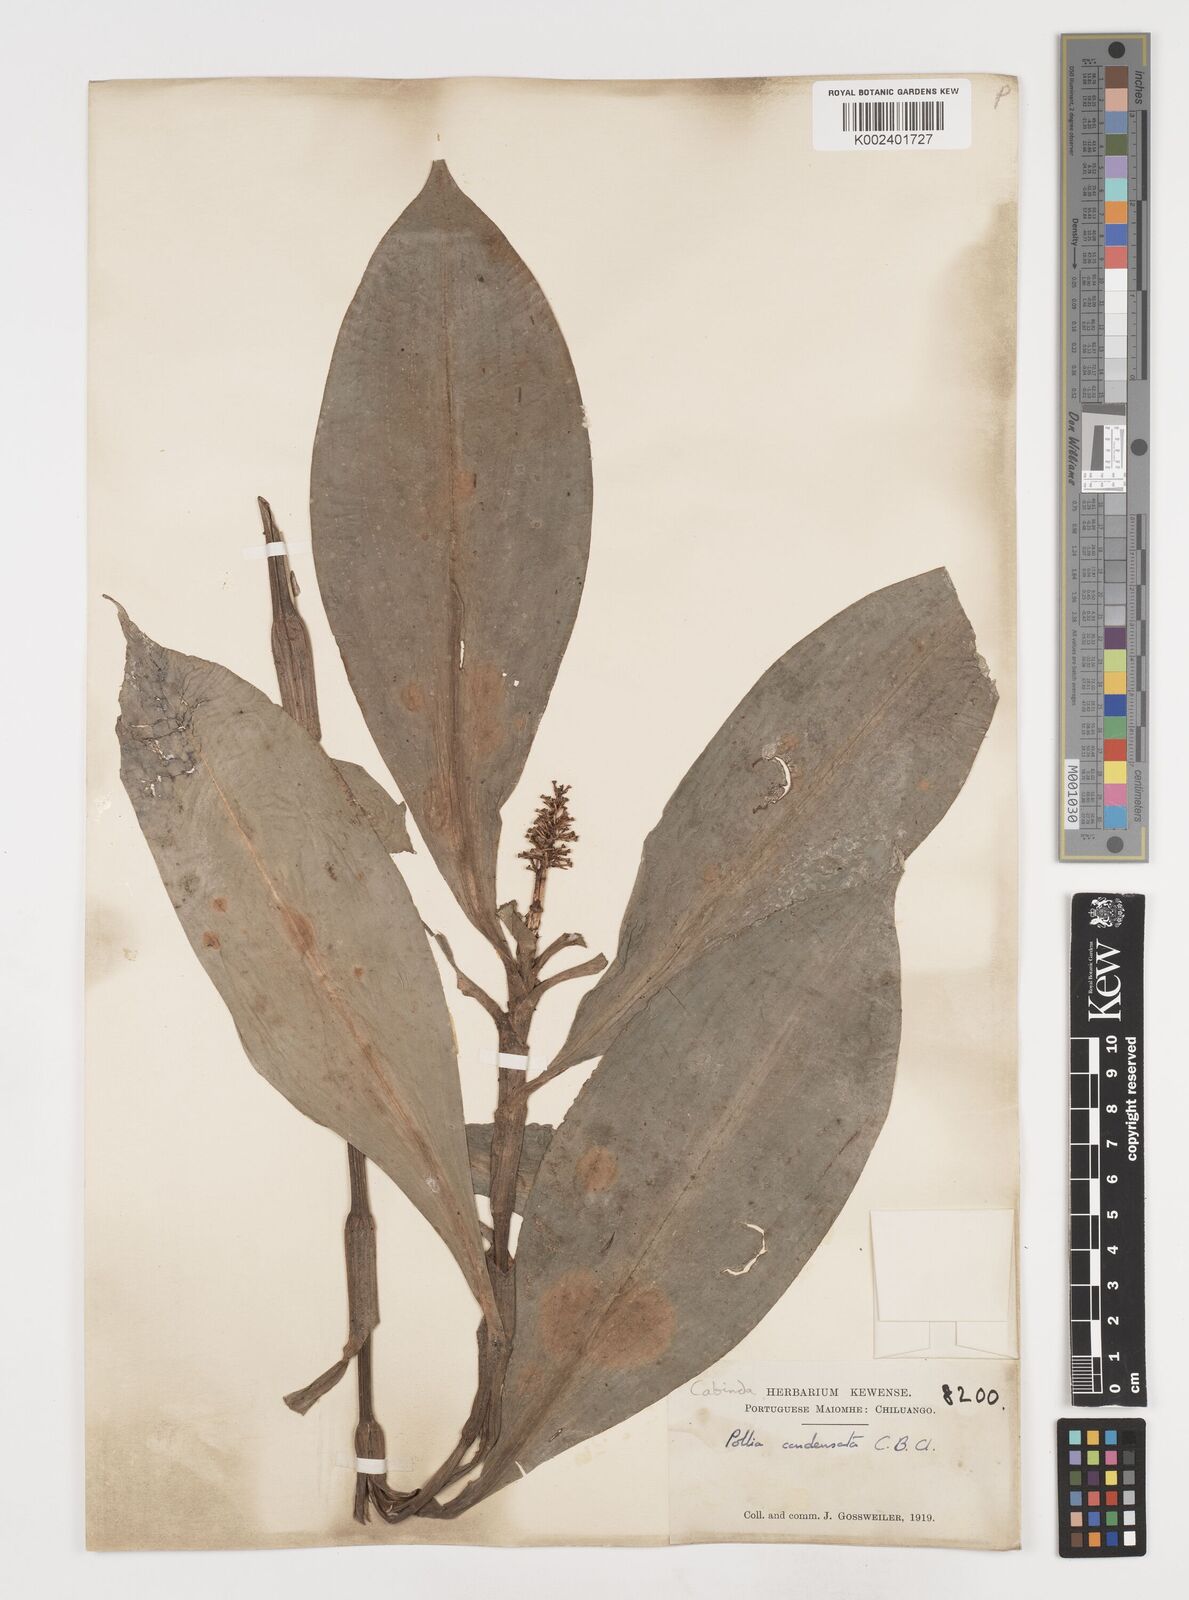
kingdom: Plantae
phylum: Tracheophyta
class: Liliopsida
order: Commelinales
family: Commelinaceae
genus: Pollia
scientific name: Pollia condensata
